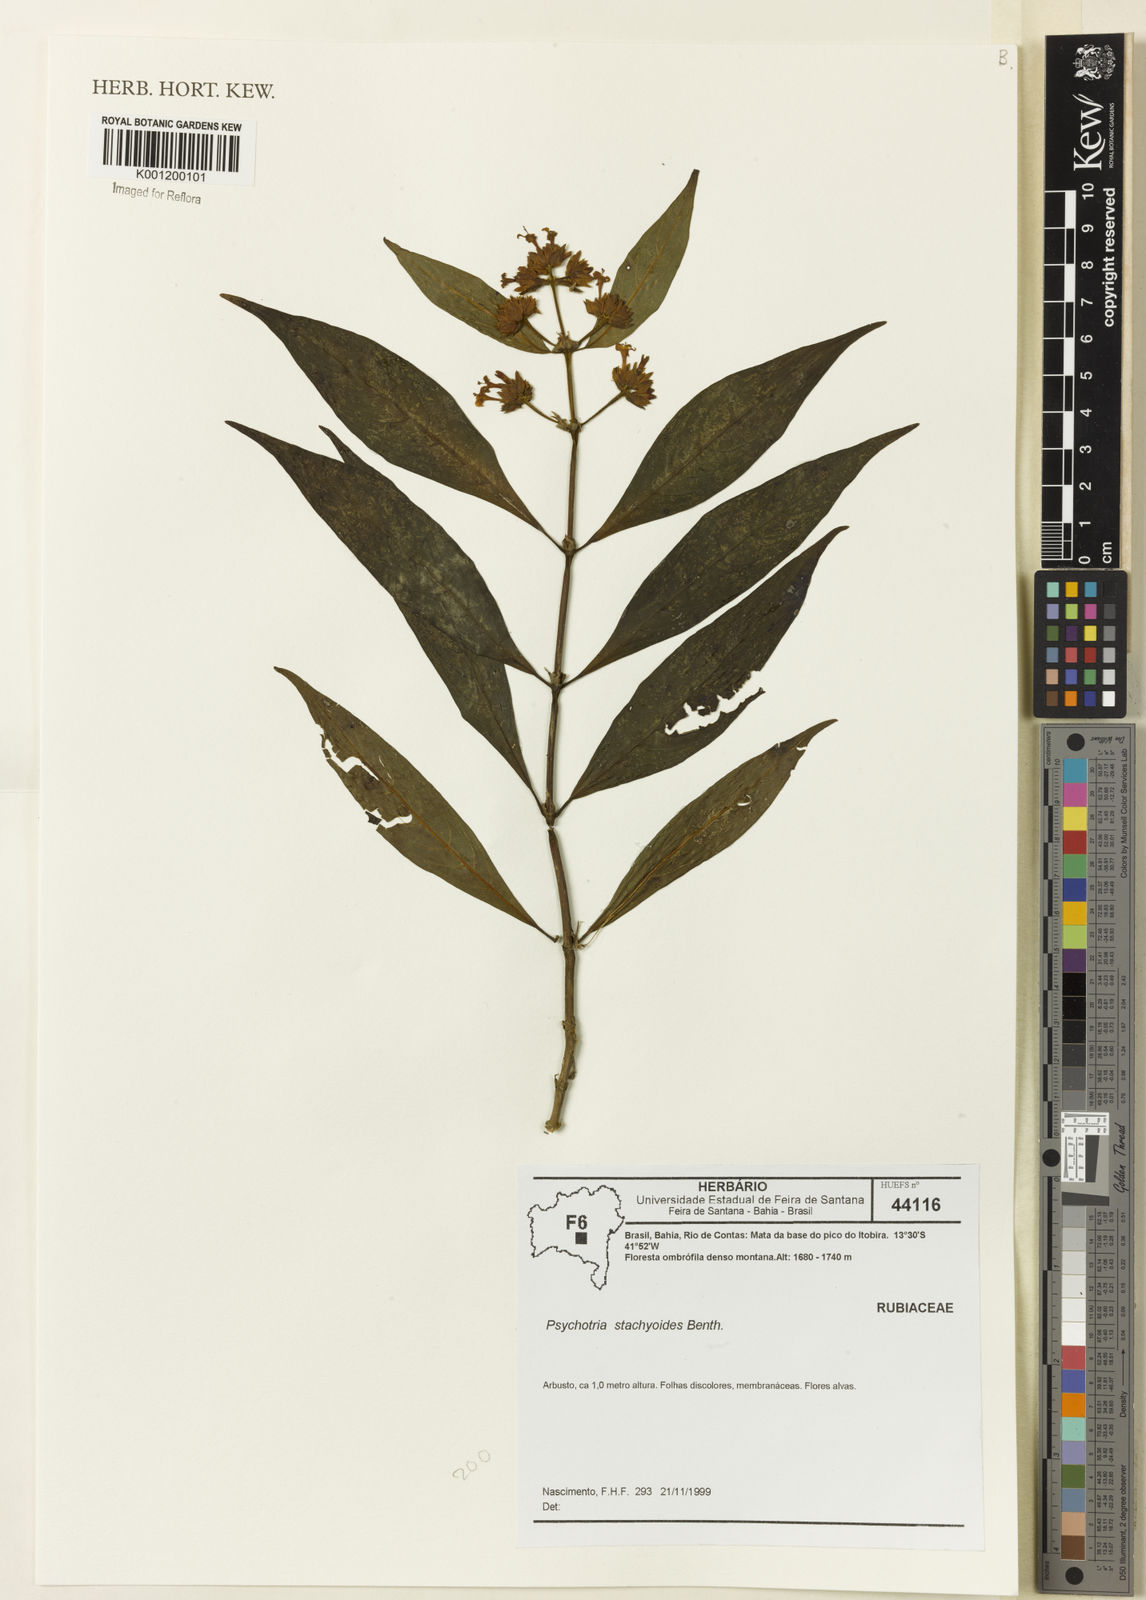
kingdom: Plantae
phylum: Tracheophyta
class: Magnoliopsida
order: Gentianales
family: Rubiaceae
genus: Psychotria
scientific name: Psychotria stachyoides
